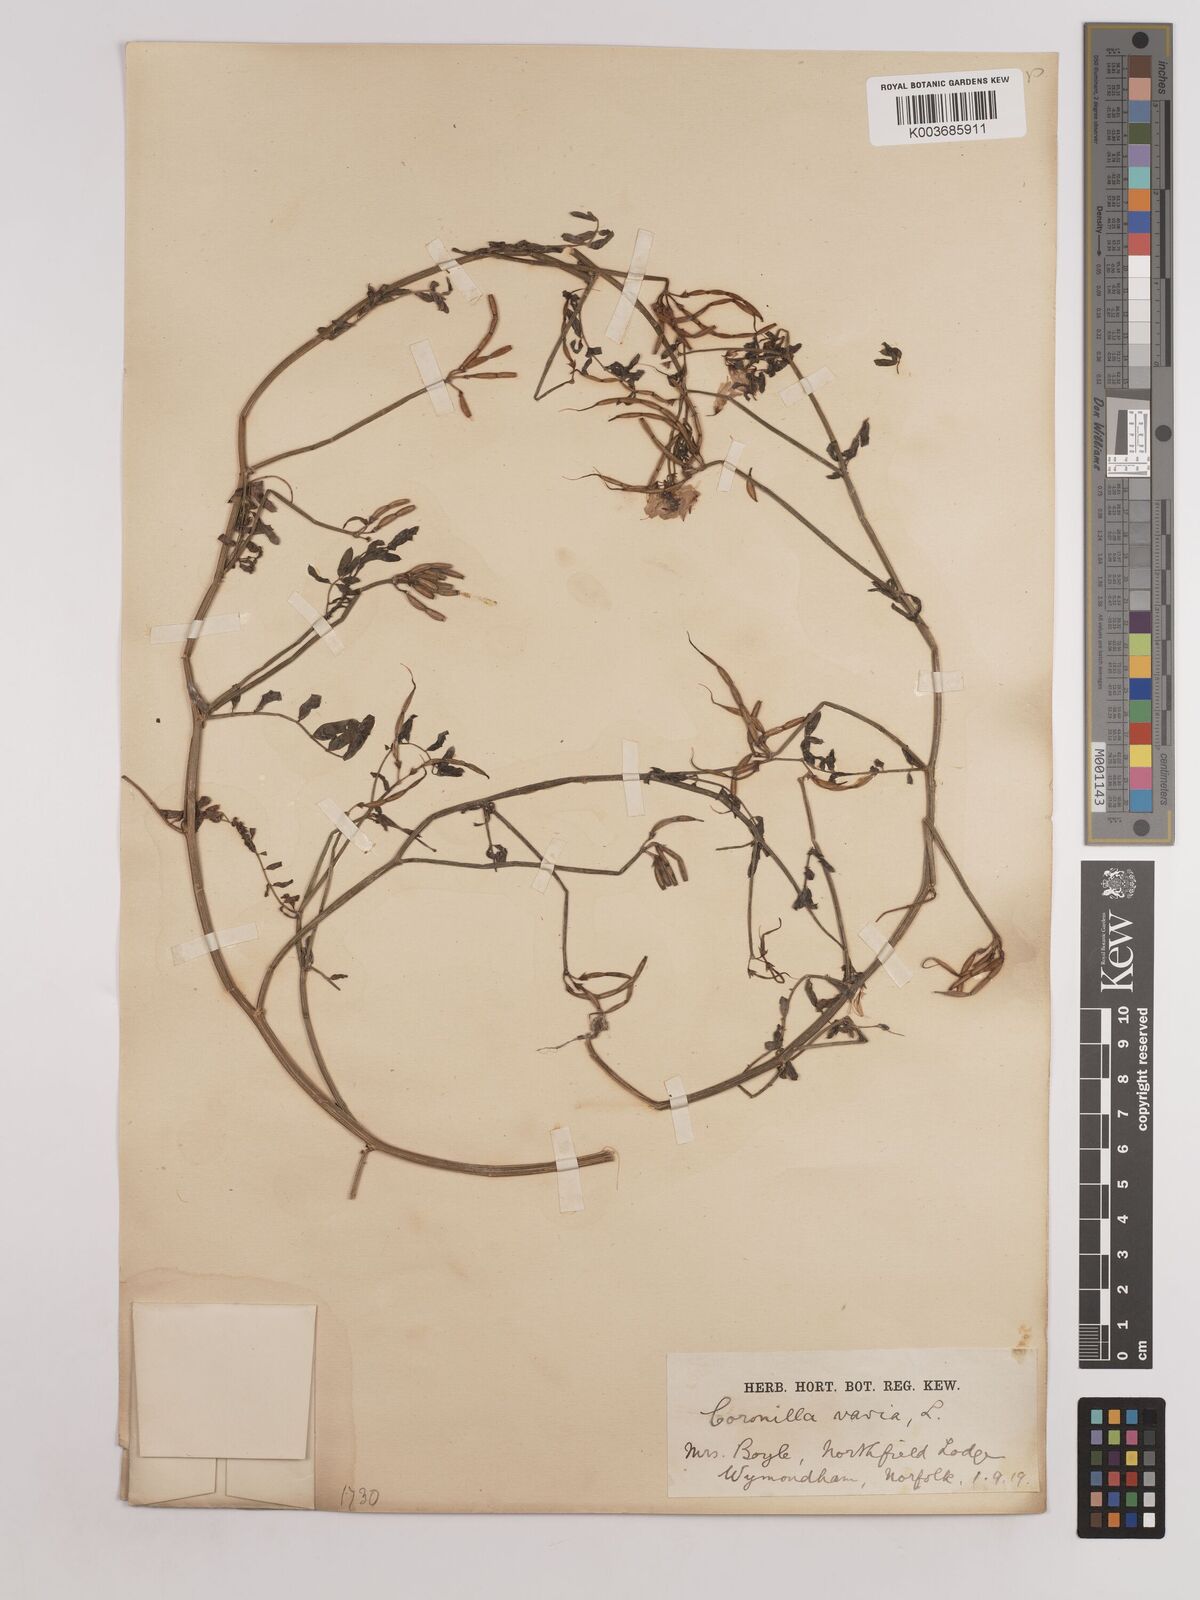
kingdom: Plantae
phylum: Tracheophyta
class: Magnoliopsida
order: Fabales
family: Fabaceae
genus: Coronilla
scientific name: Coronilla varia
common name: Crownvetch
